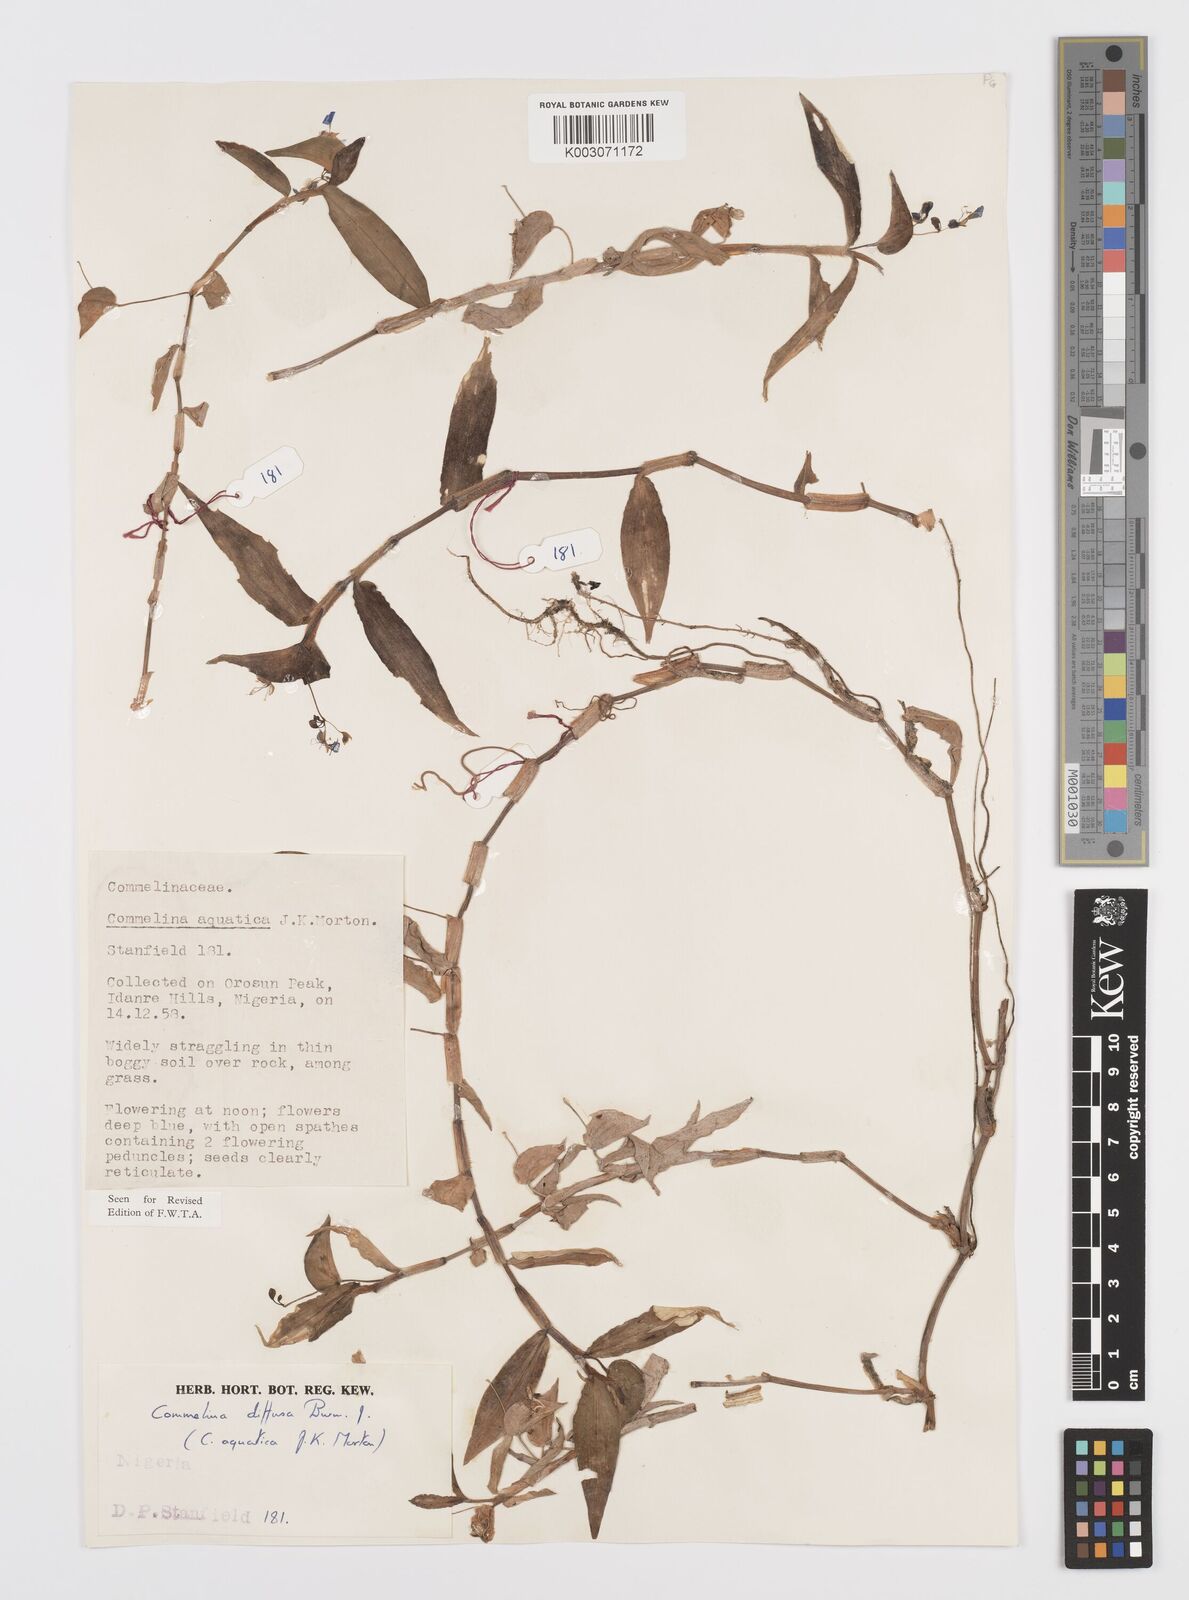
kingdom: Plantae
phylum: Tracheophyta
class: Liliopsida
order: Commelinales
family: Commelinaceae
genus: Commelina
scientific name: Commelina diffusa
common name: Climbing dayflower
